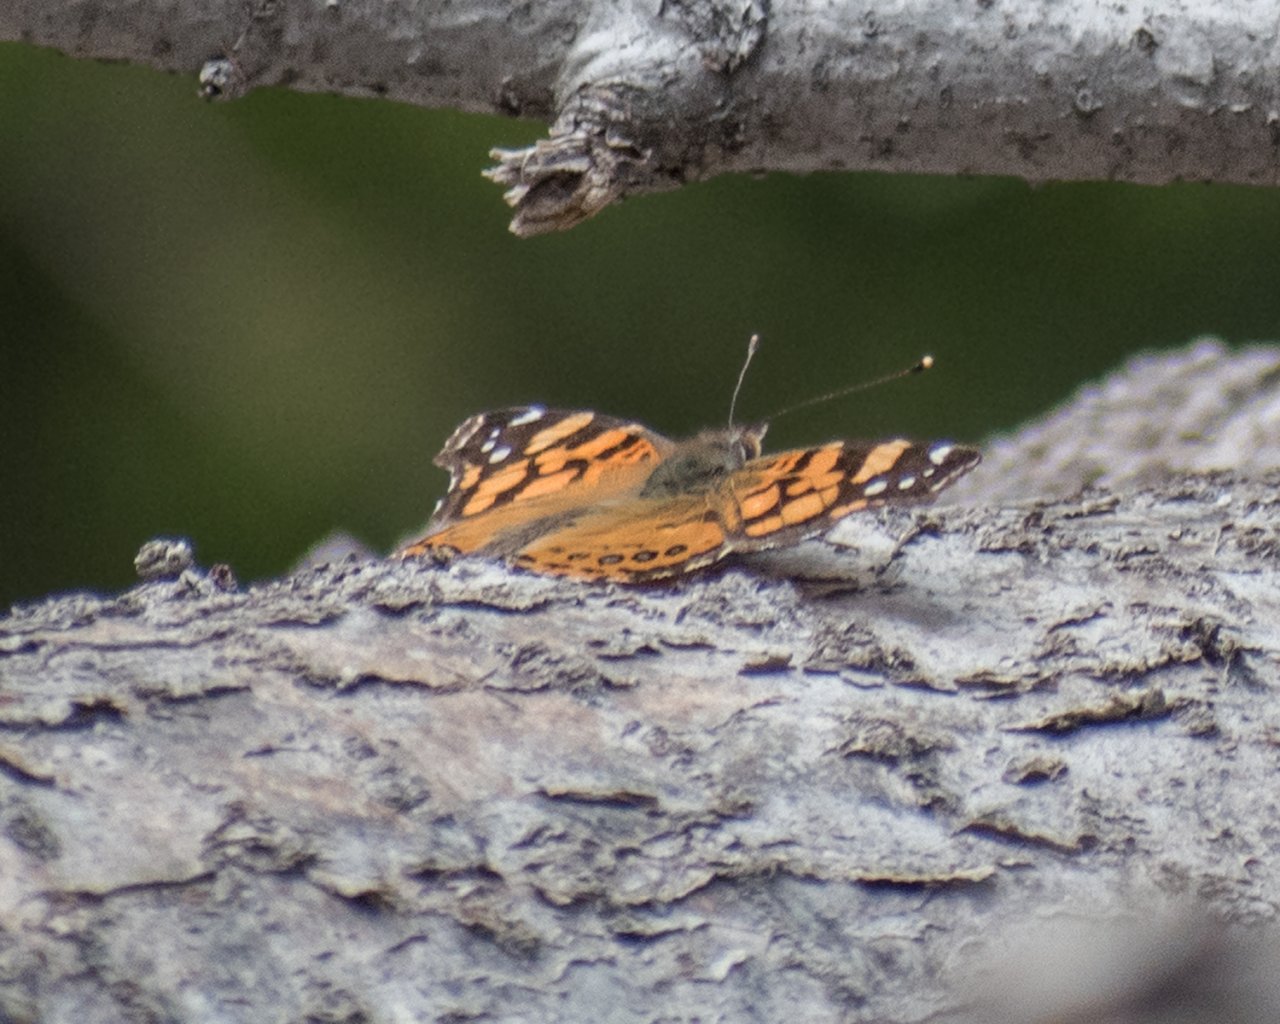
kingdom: Animalia
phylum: Arthropoda
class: Insecta
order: Lepidoptera
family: Nymphalidae
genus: Vanessa
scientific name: Vanessa annabella
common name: West Coast Lady
